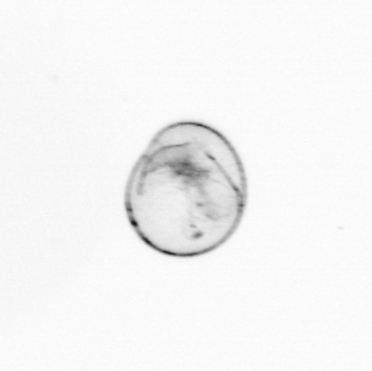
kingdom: Chromista
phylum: Myzozoa
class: Dinophyceae
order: Noctilucales
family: Noctilucaceae
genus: Noctiluca
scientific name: Noctiluca scintillans
